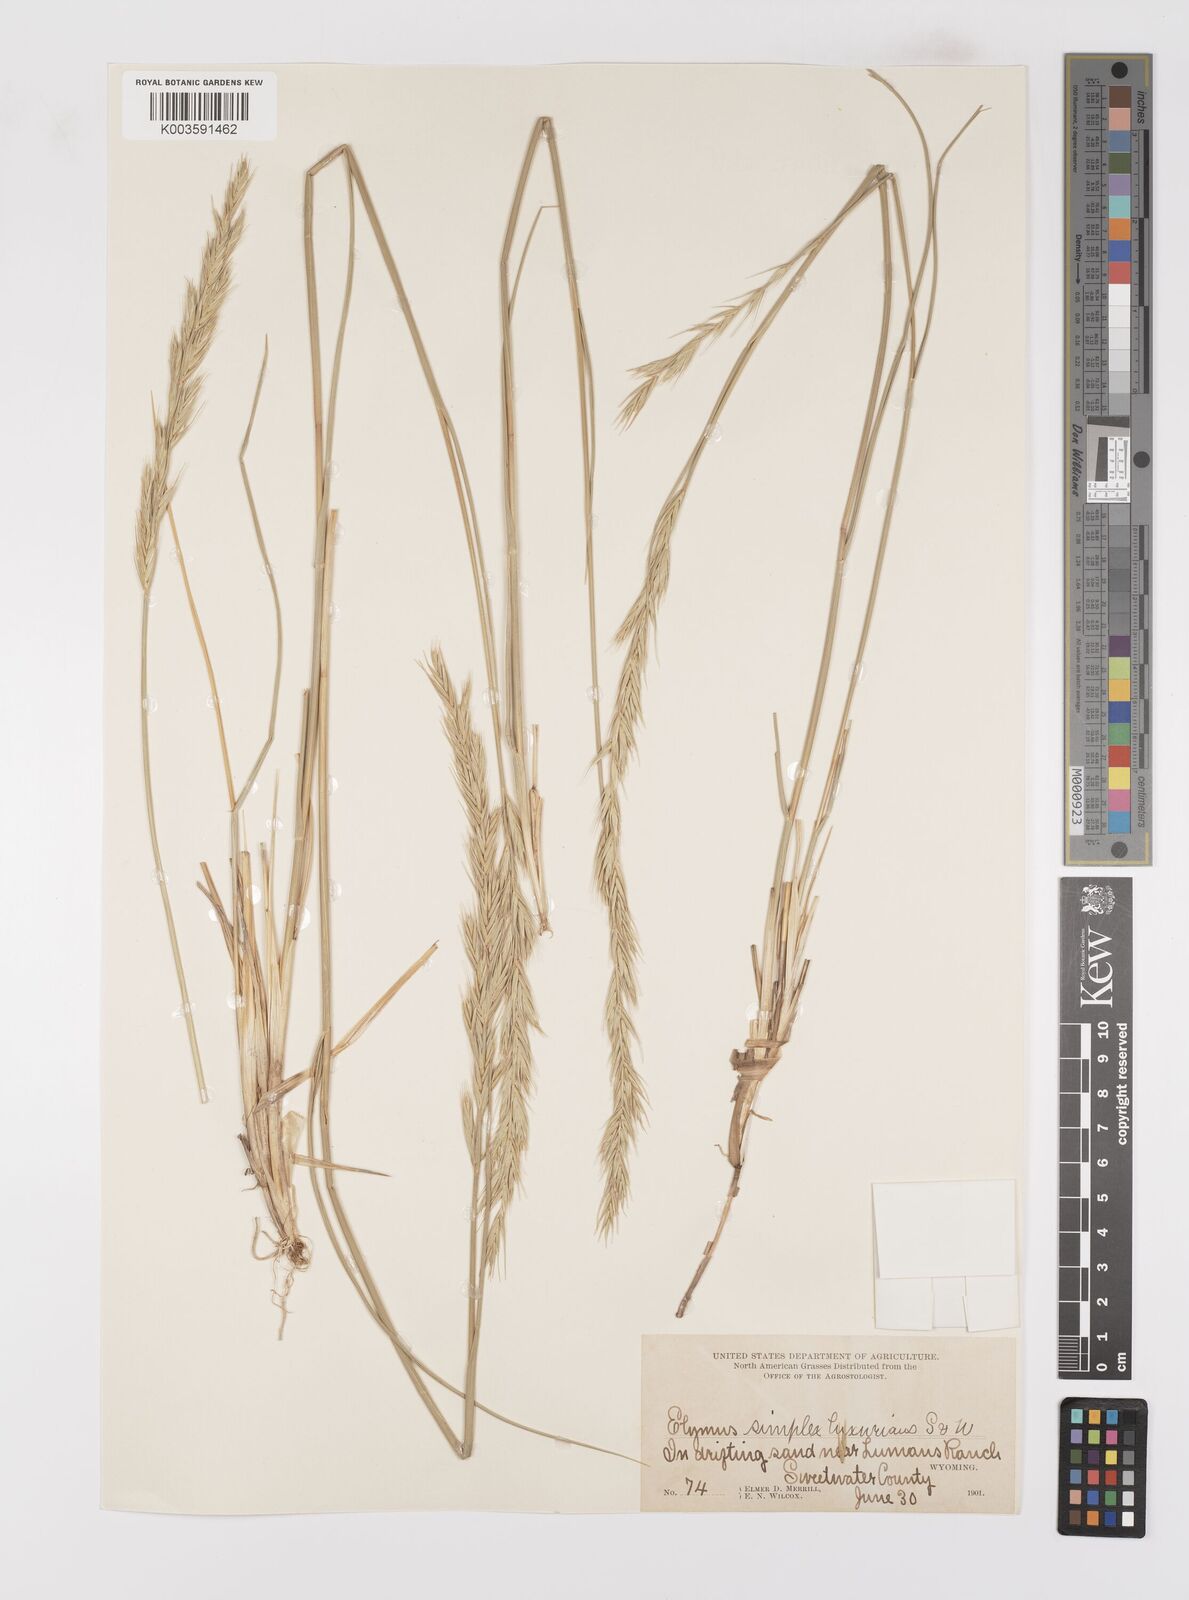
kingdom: Plantae
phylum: Tracheophyta
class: Liliopsida
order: Poales
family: Poaceae
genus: Leymus
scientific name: Leymus triticoides
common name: Beardless wild rye
